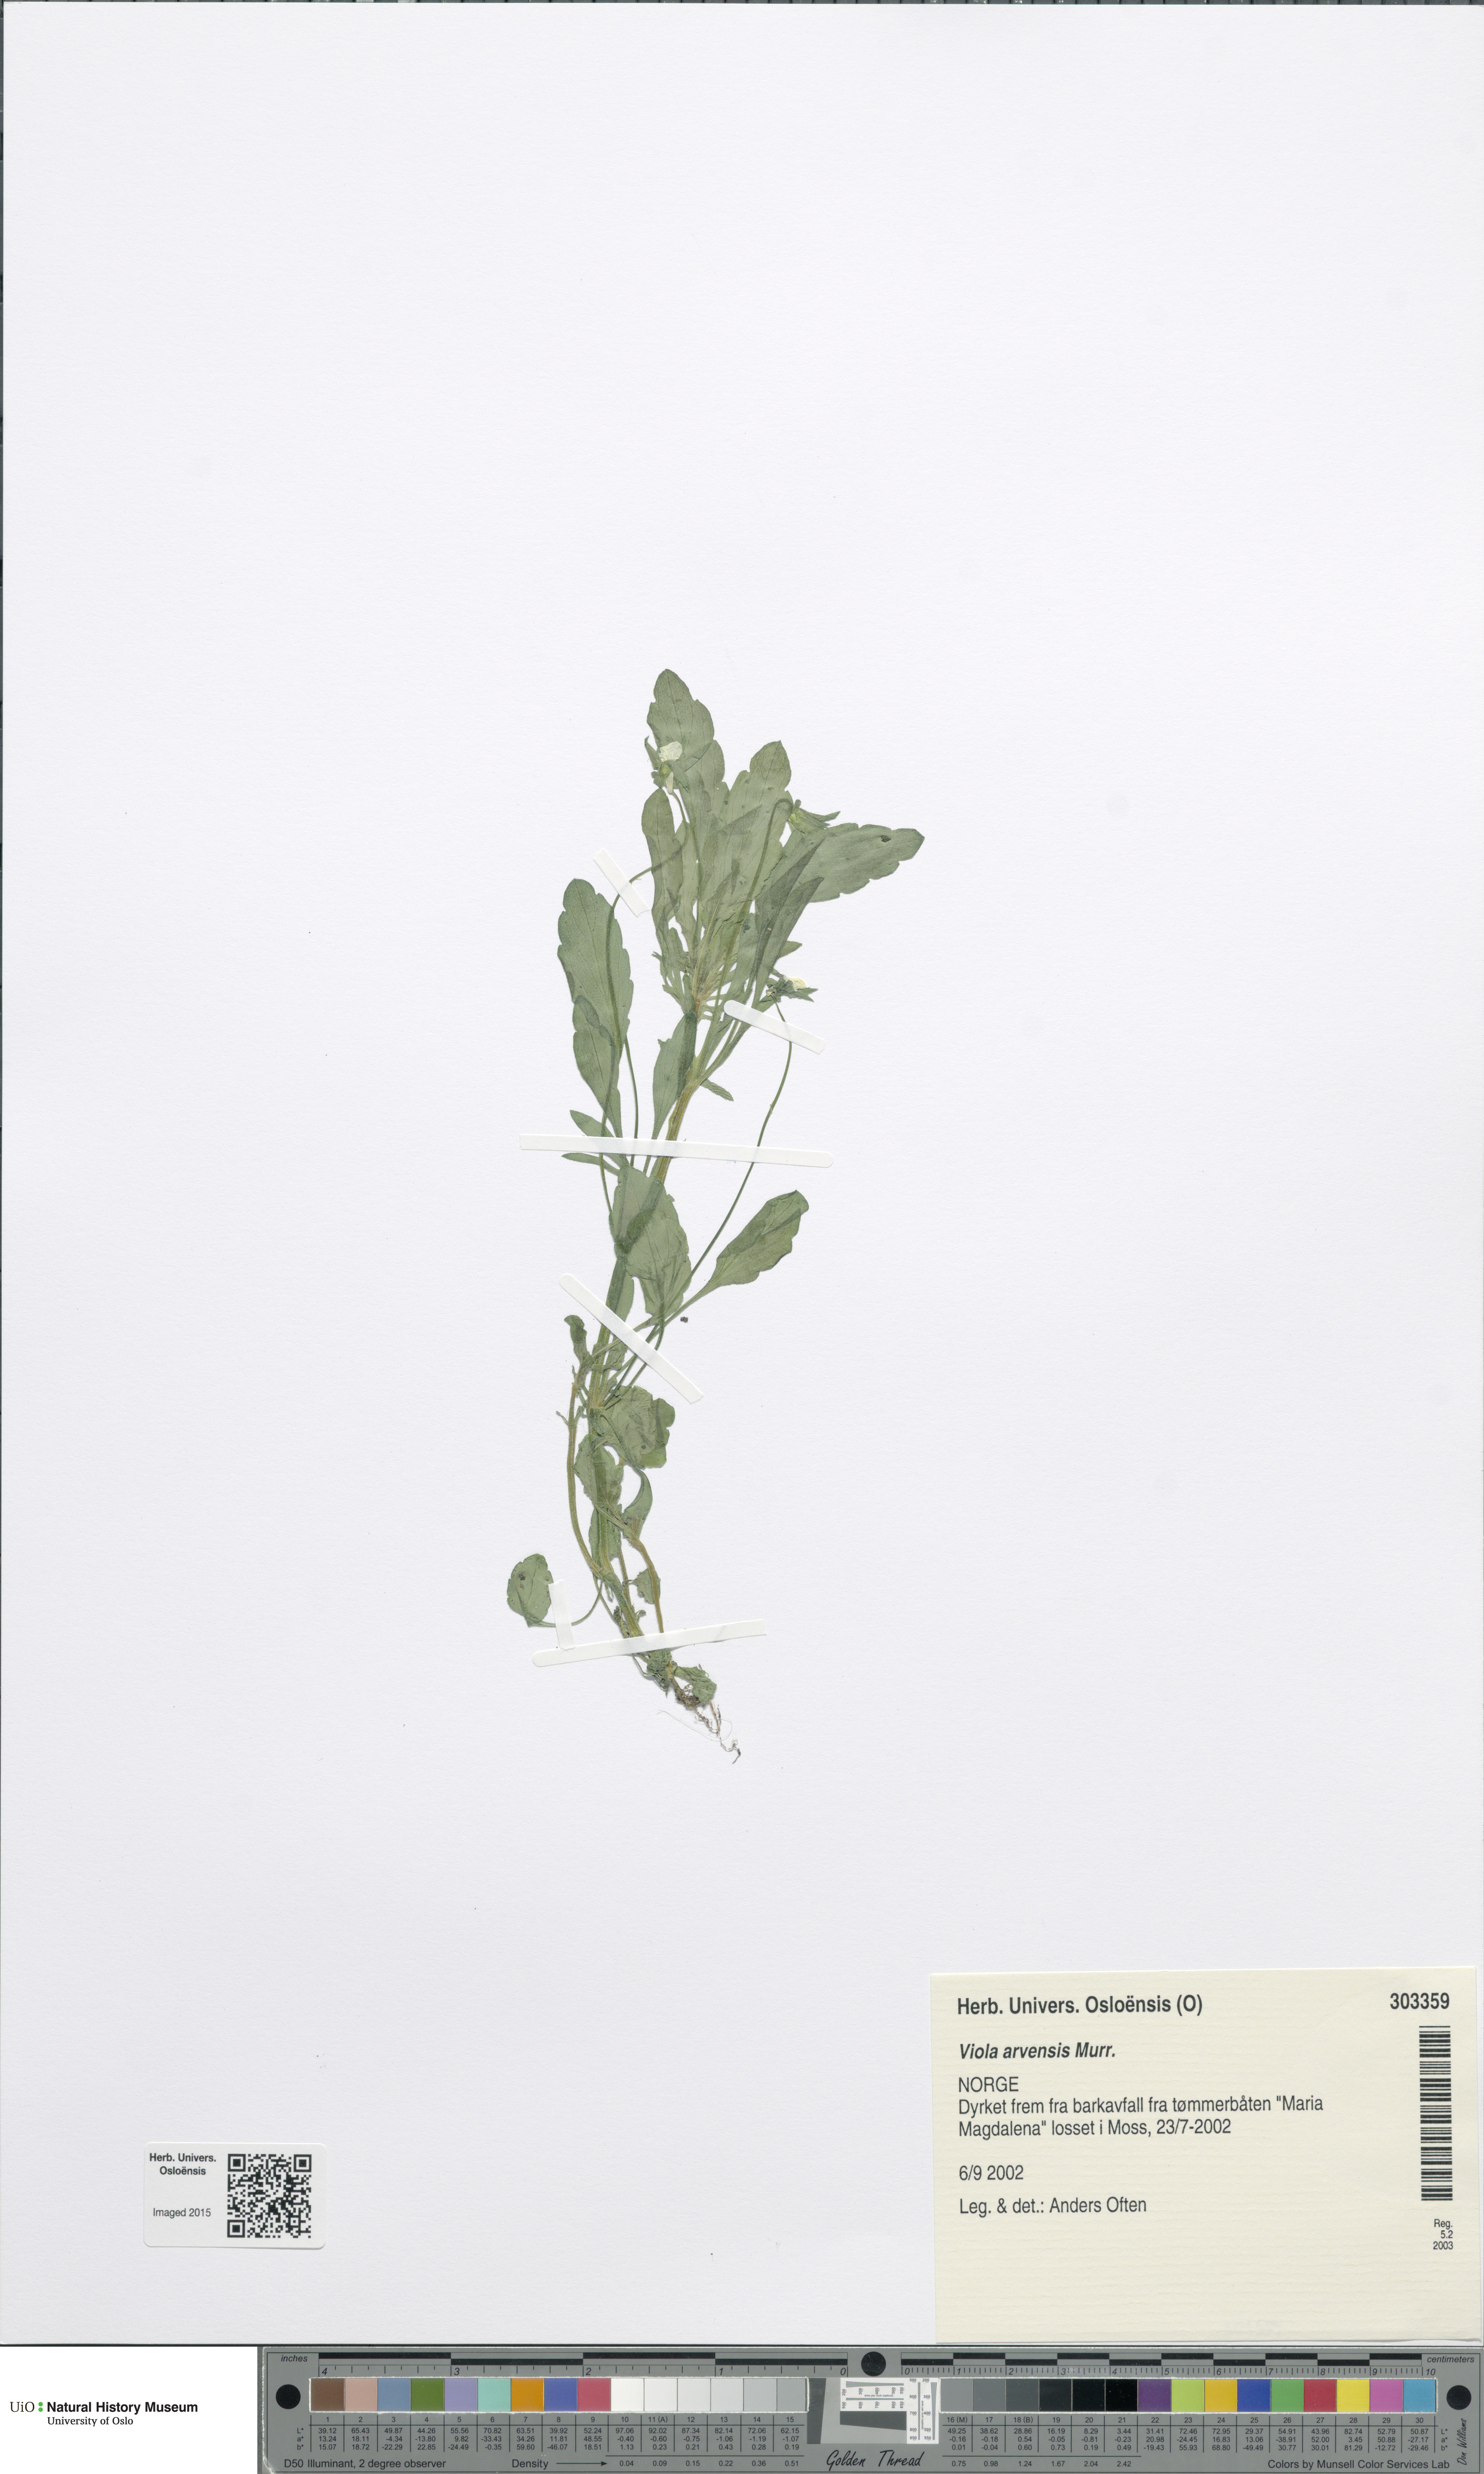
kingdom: Plantae
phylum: Tracheophyta
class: Magnoliopsida
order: Malpighiales
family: Violaceae
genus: Viola
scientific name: Viola arvensis
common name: Field pansy
